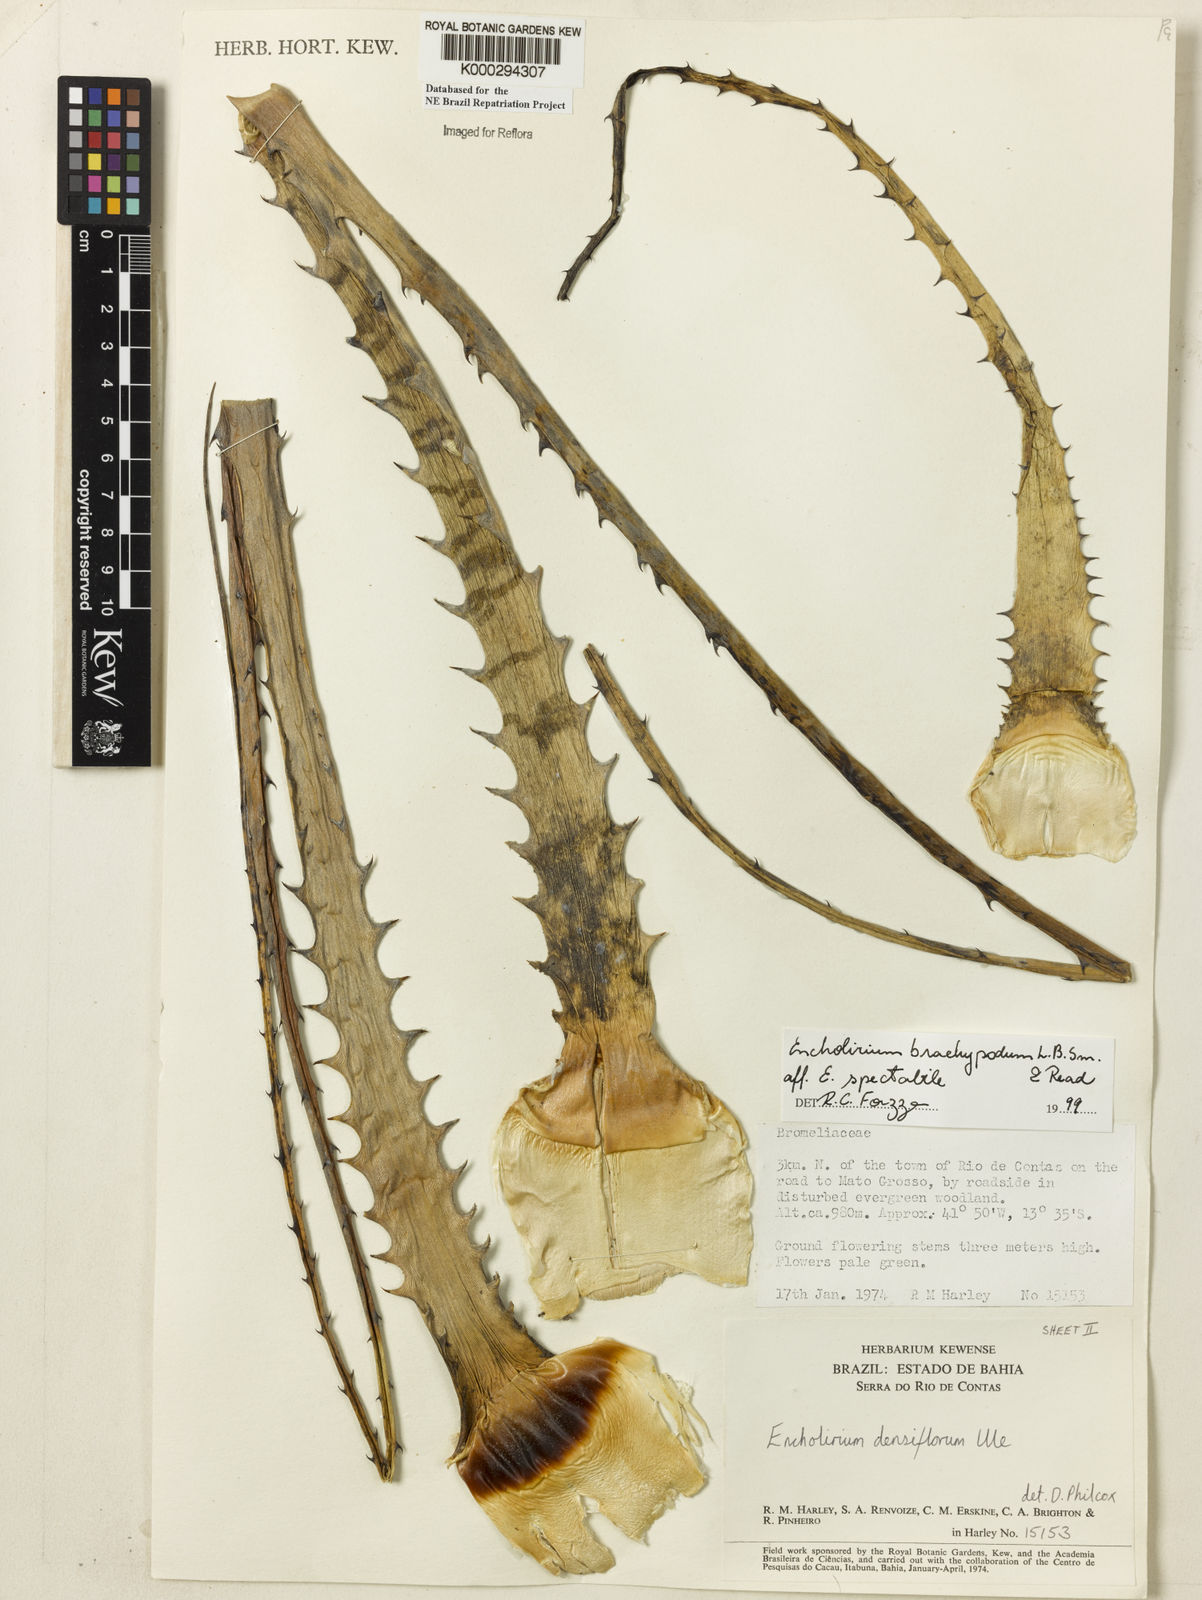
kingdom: Plantae
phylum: Tracheophyta
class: Liliopsida
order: Poales
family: Bromeliaceae
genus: Encholirium
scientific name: Encholirium brachypodum
